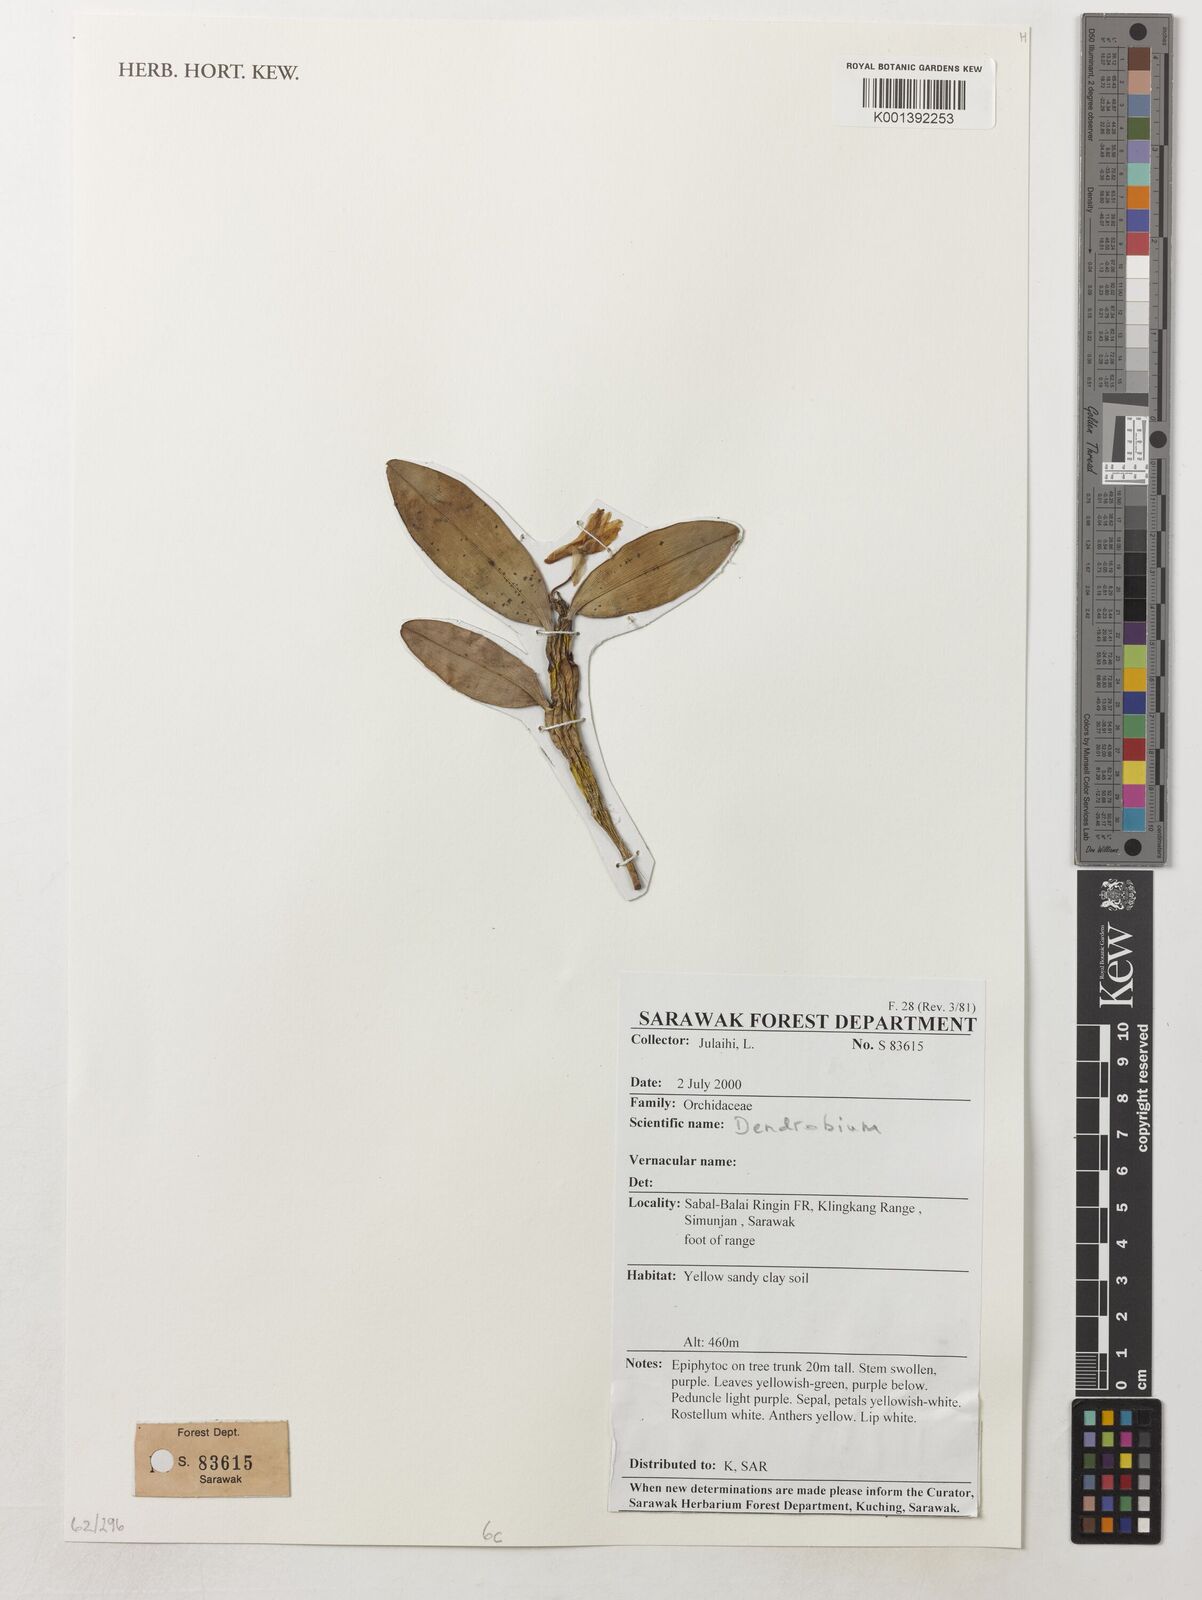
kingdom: Plantae
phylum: Tracheophyta
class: Liliopsida
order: Asparagales
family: Orchidaceae
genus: Dendrobium
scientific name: Dendrobium
